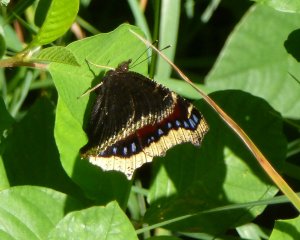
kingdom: Animalia
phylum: Arthropoda
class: Insecta
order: Lepidoptera
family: Nymphalidae
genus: Nymphalis
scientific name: Nymphalis antiopa
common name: Mourning Cloak
